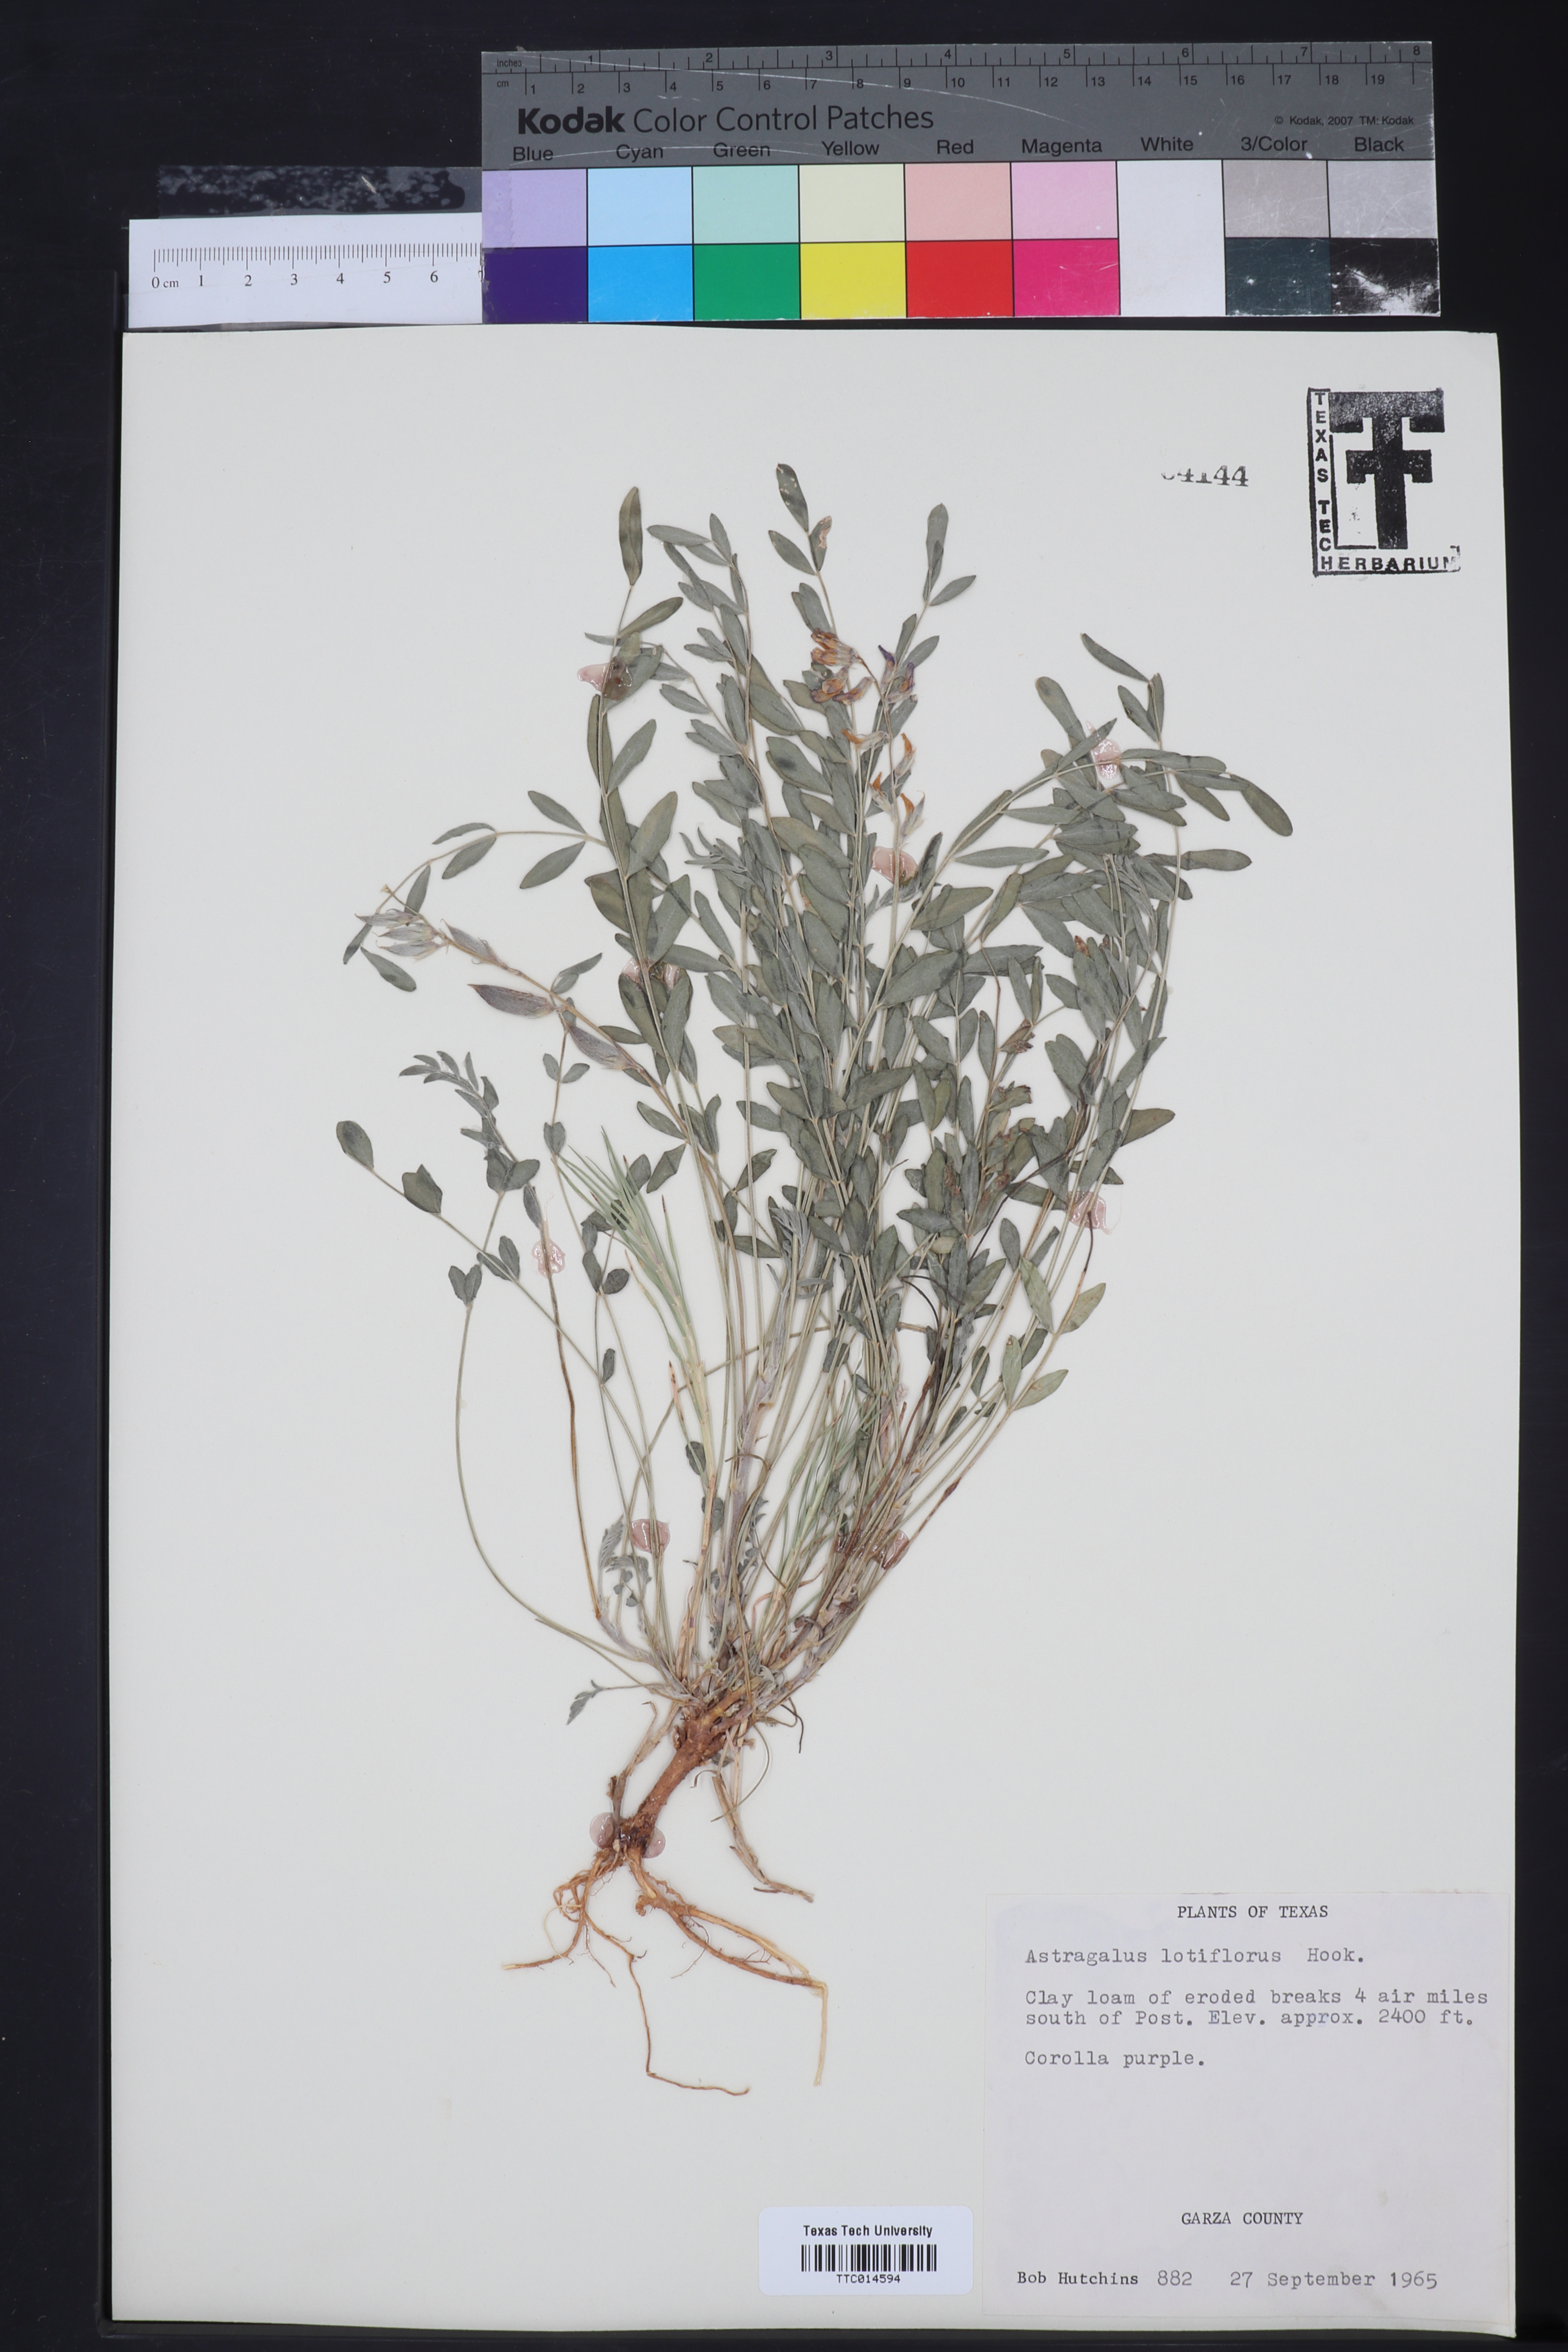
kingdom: Plantae
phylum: Tracheophyta
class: Magnoliopsida
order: Fabales
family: Fabaceae
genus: Astragalus
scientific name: Astragalus lotiflorus
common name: Lotus milk-vetch
